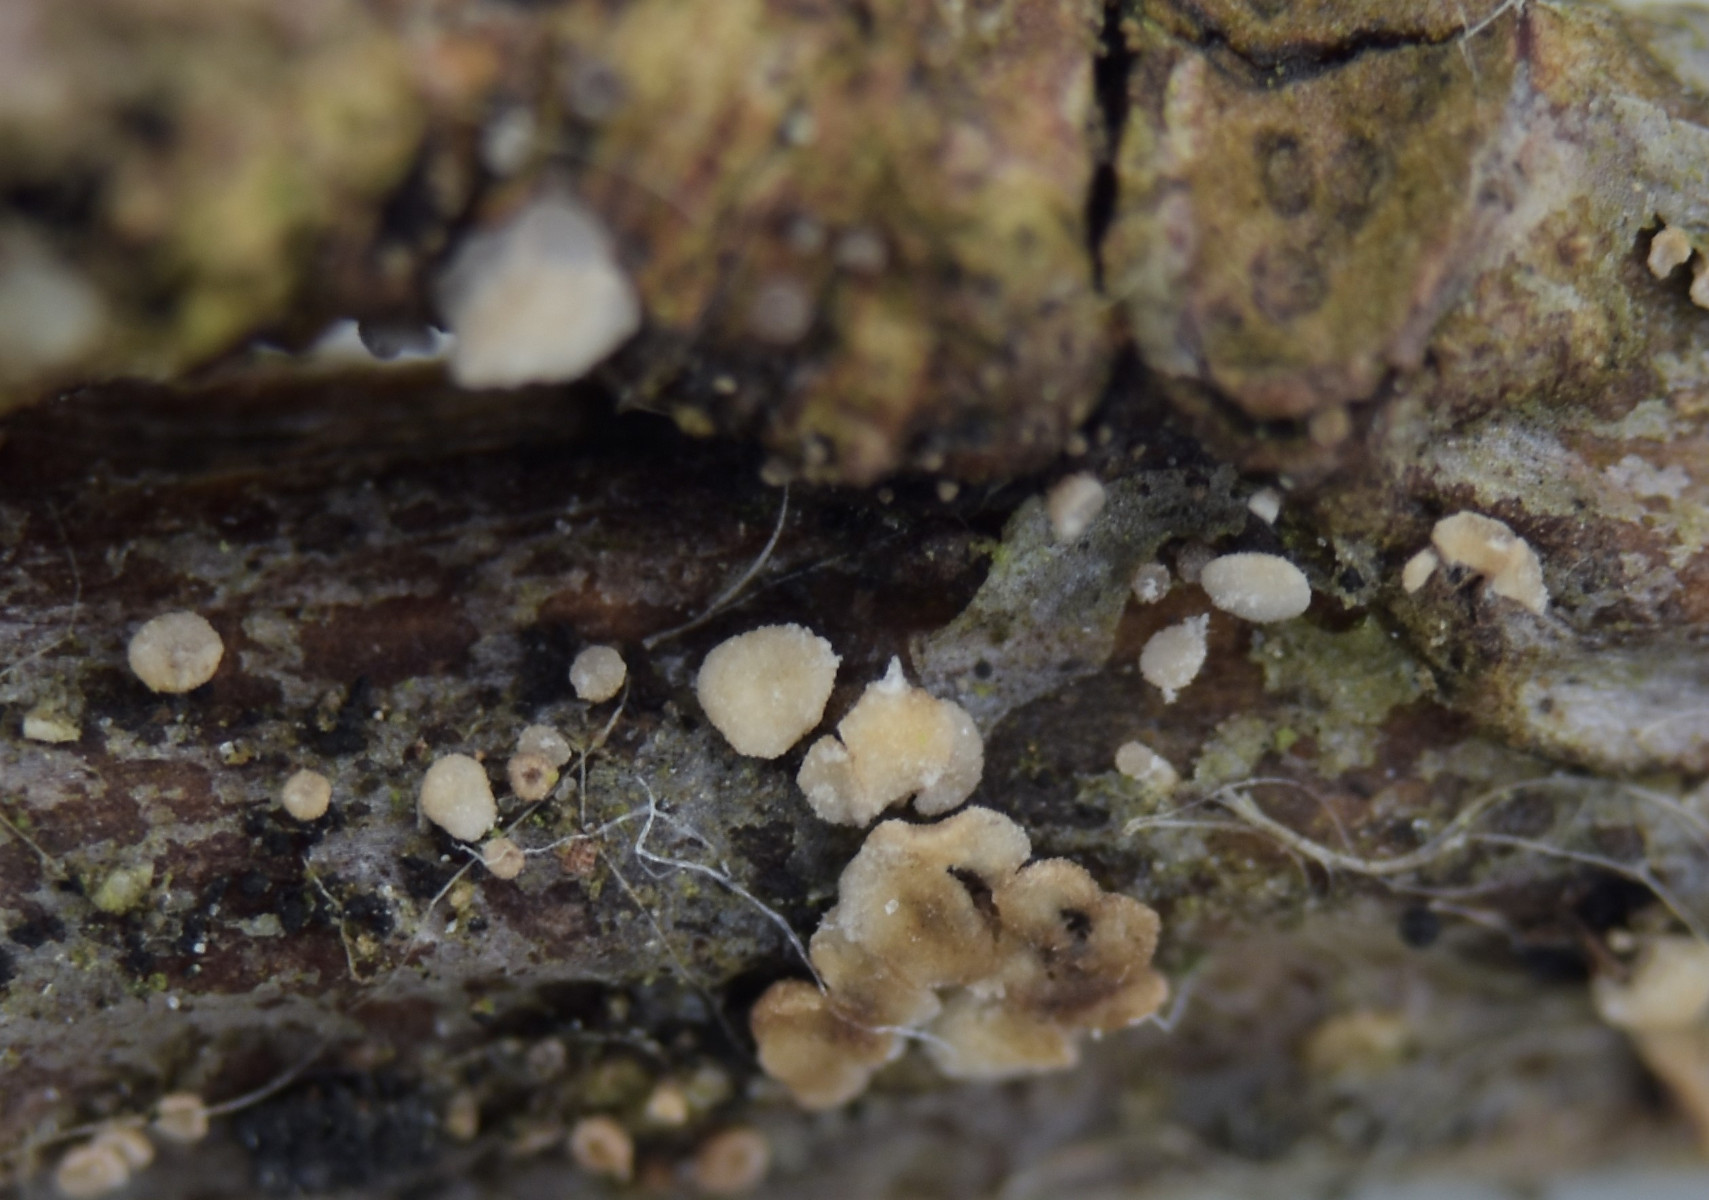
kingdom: Fungi
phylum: Ascomycota
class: Leotiomycetes
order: Helotiales
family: Pezizellaceae
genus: Pezizella
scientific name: Pezizella
